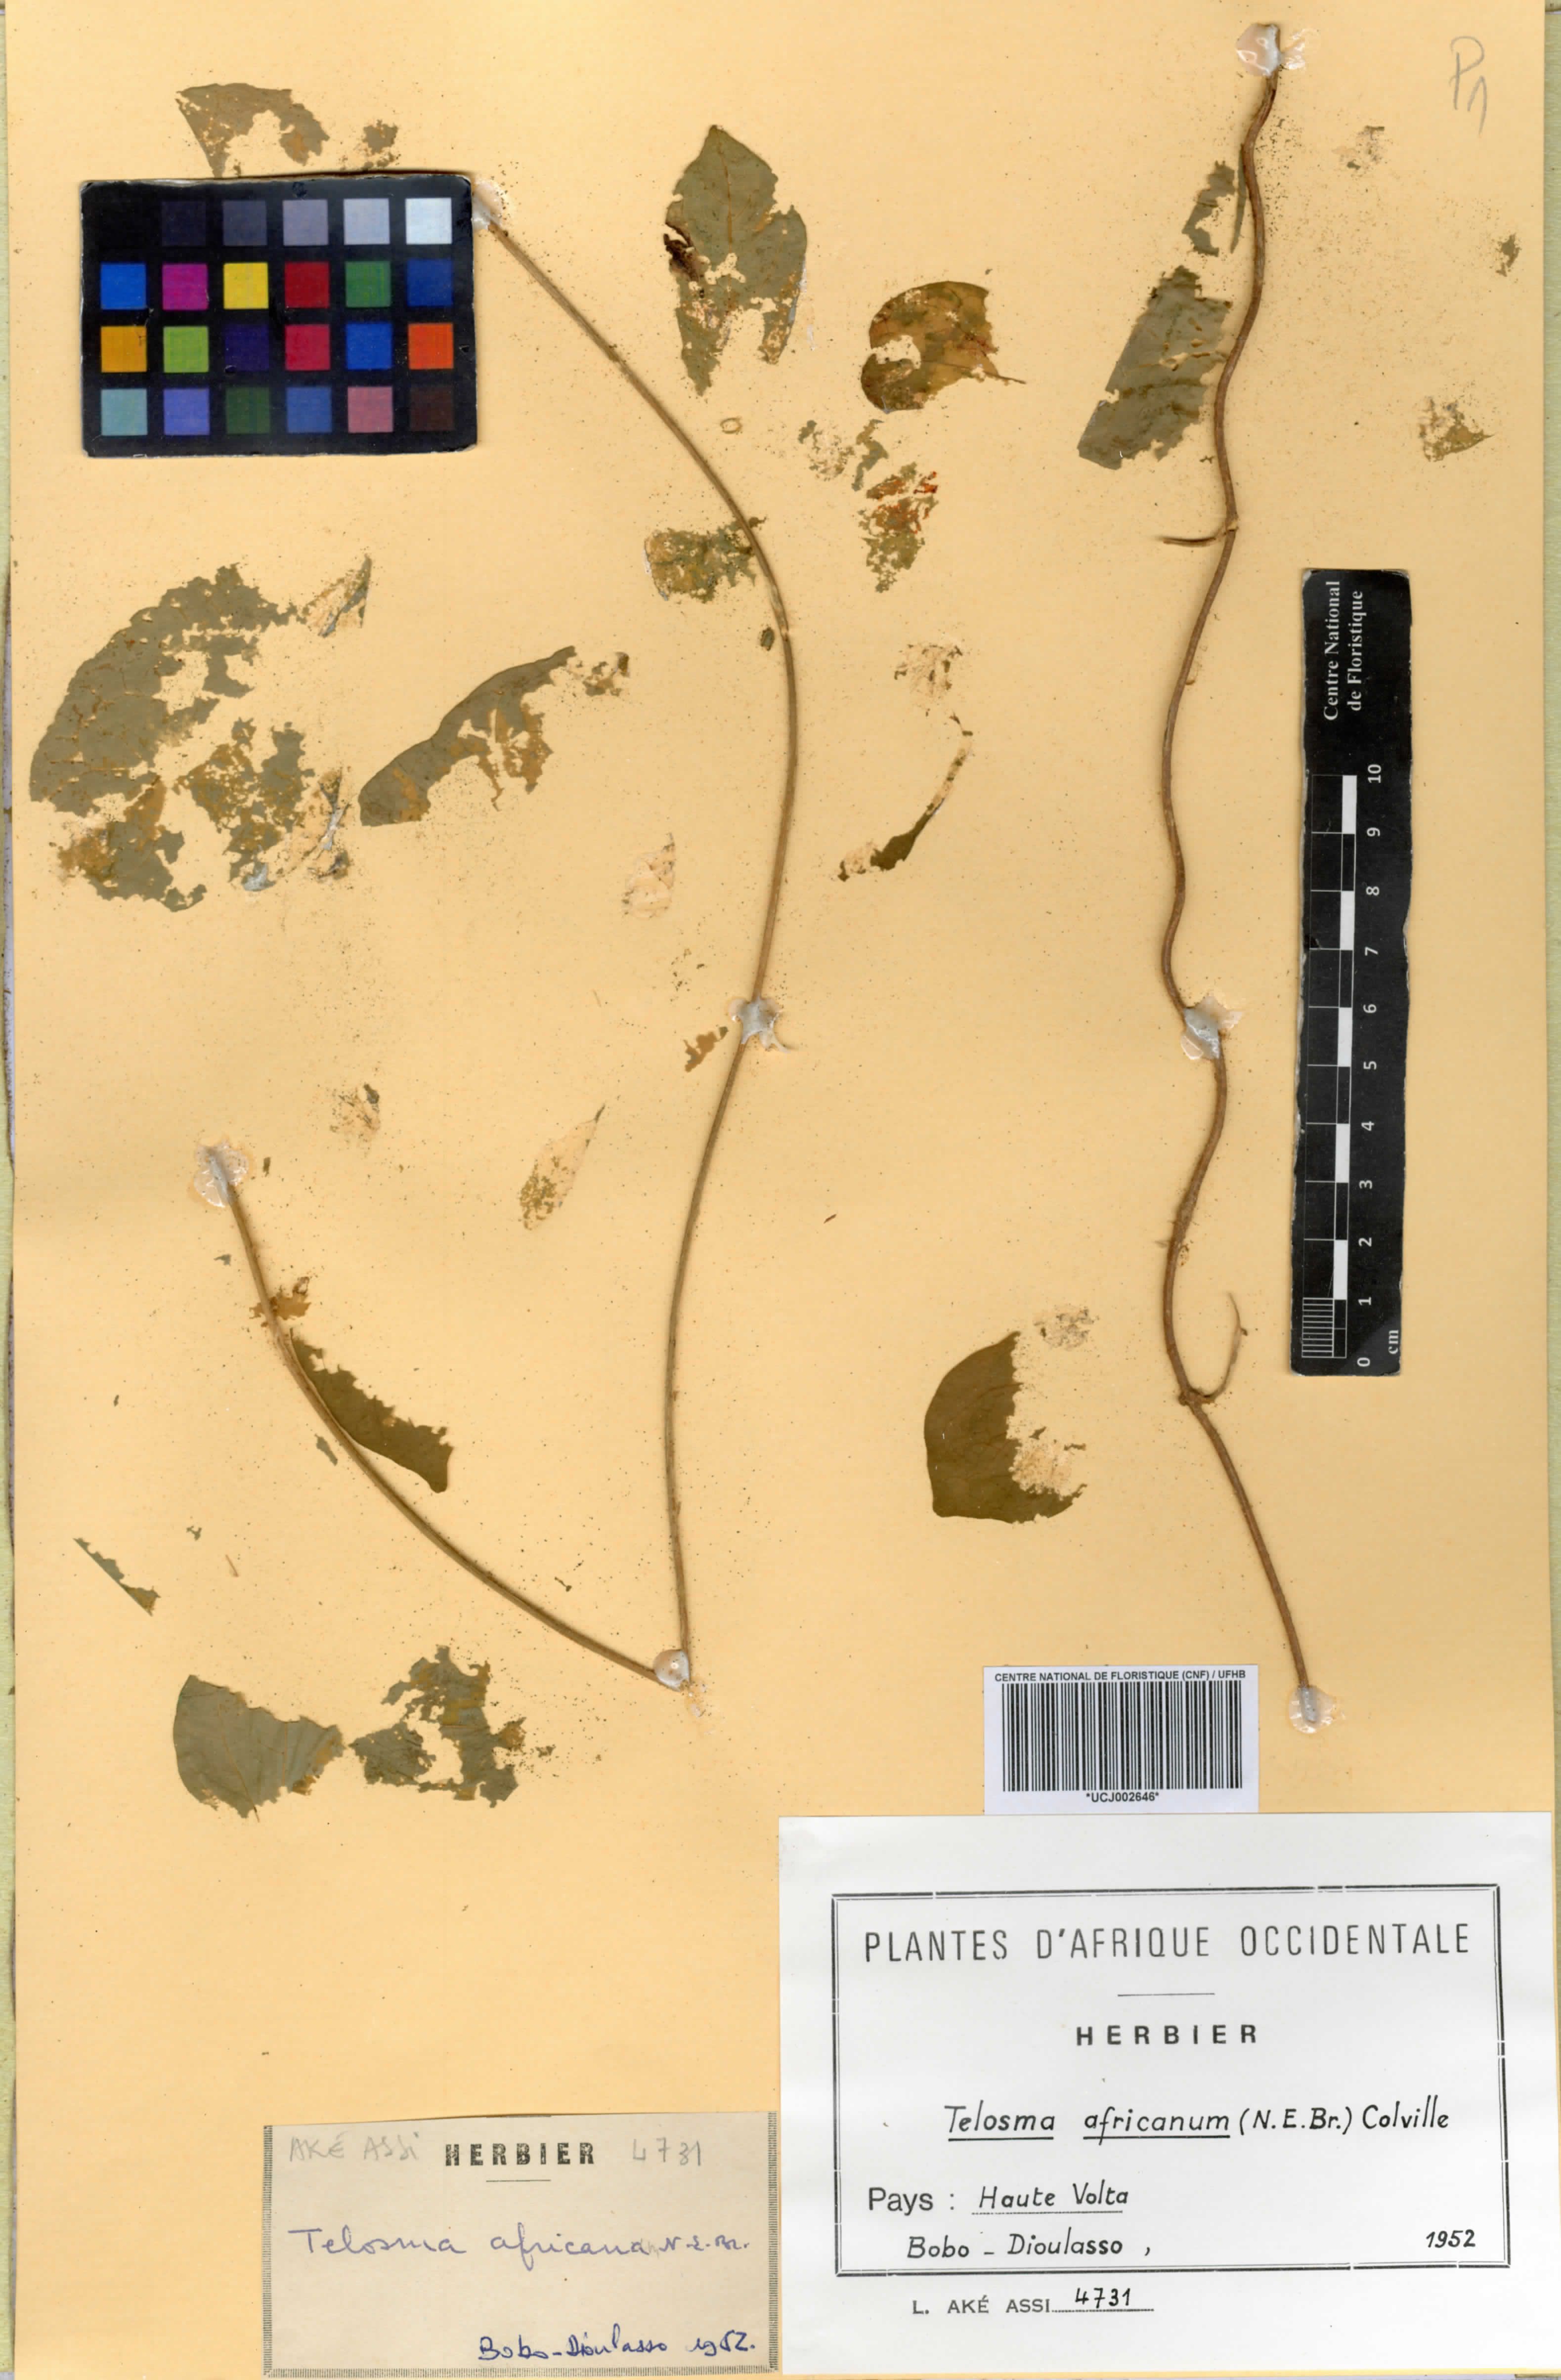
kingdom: Plantae
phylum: Tracheophyta
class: Magnoliopsida
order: Gentianales
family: Apocynaceae
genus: Telosma
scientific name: Telosma africana
